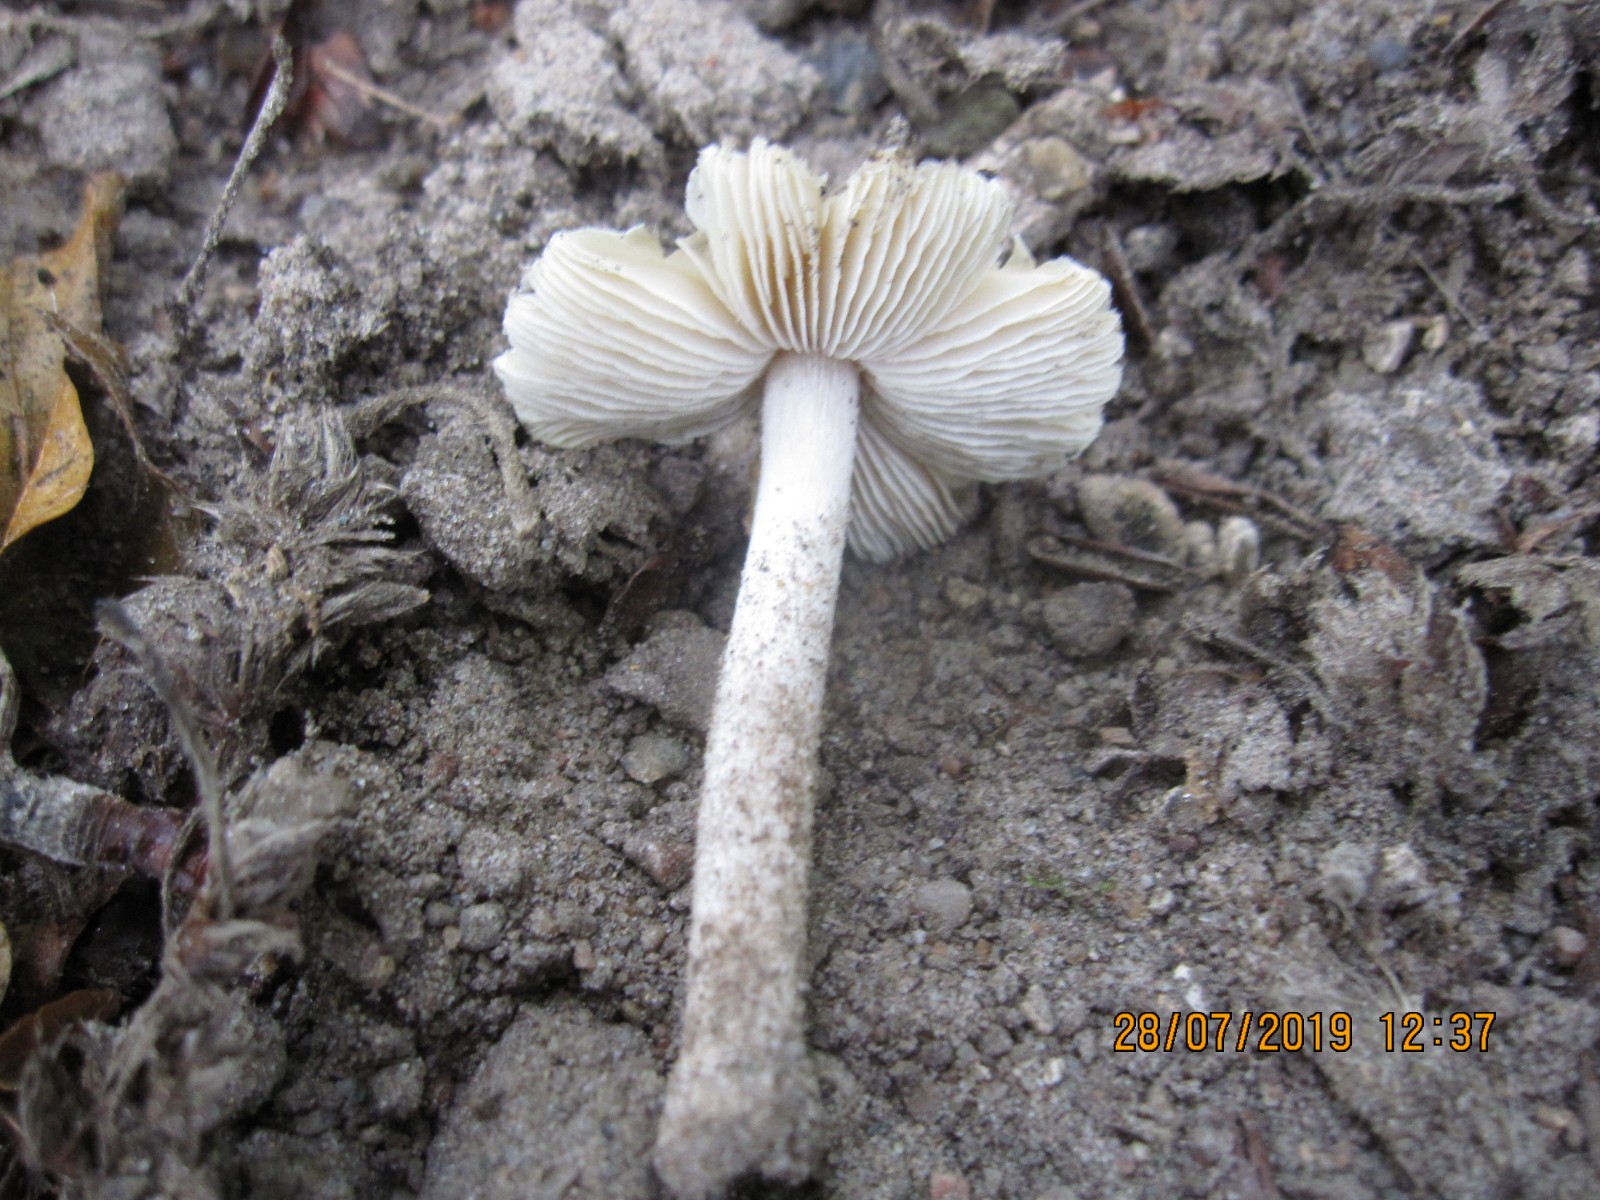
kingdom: Fungi
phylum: Basidiomycota
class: Agaricomycetes
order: Agaricales
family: Inocybaceae
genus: Pseudosperma
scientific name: Pseudosperma rimosum
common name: gulbladet trævlhat
